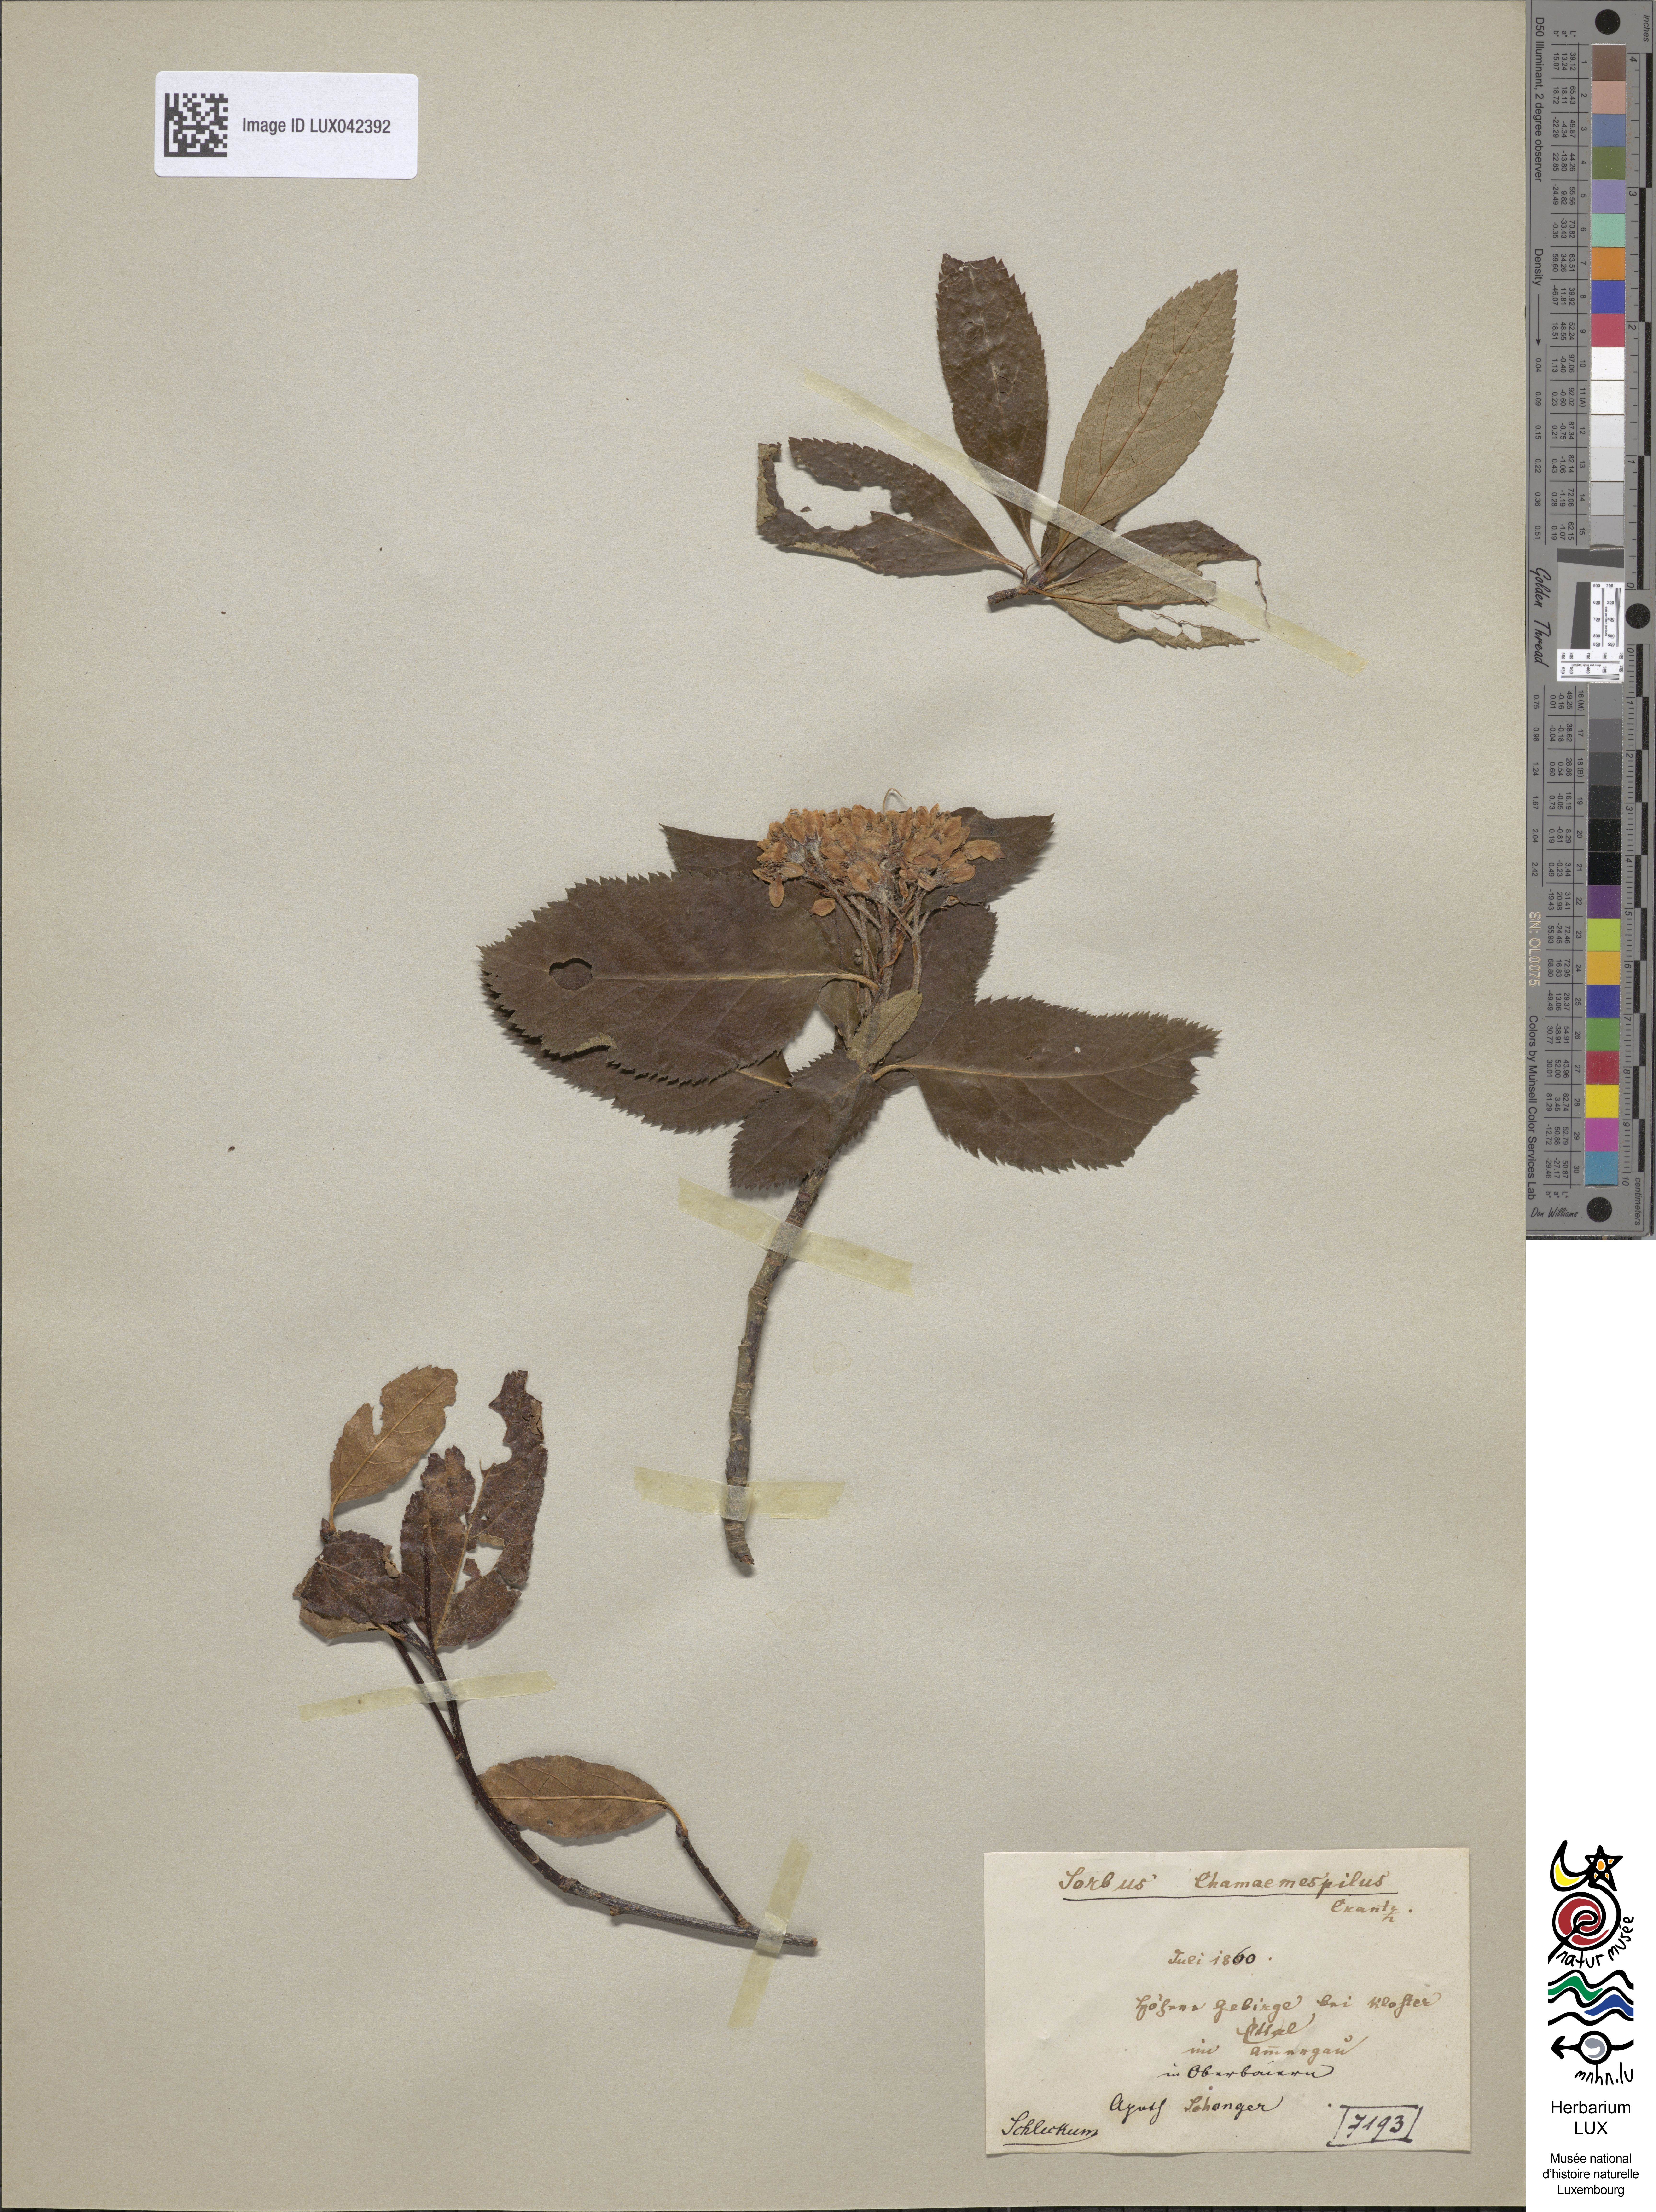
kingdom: Plantae
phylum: Tracheophyta
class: Magnoliopsida
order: Rosales
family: Rosaceae
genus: Chamaemespilus
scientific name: Chamaemespilus alpina
